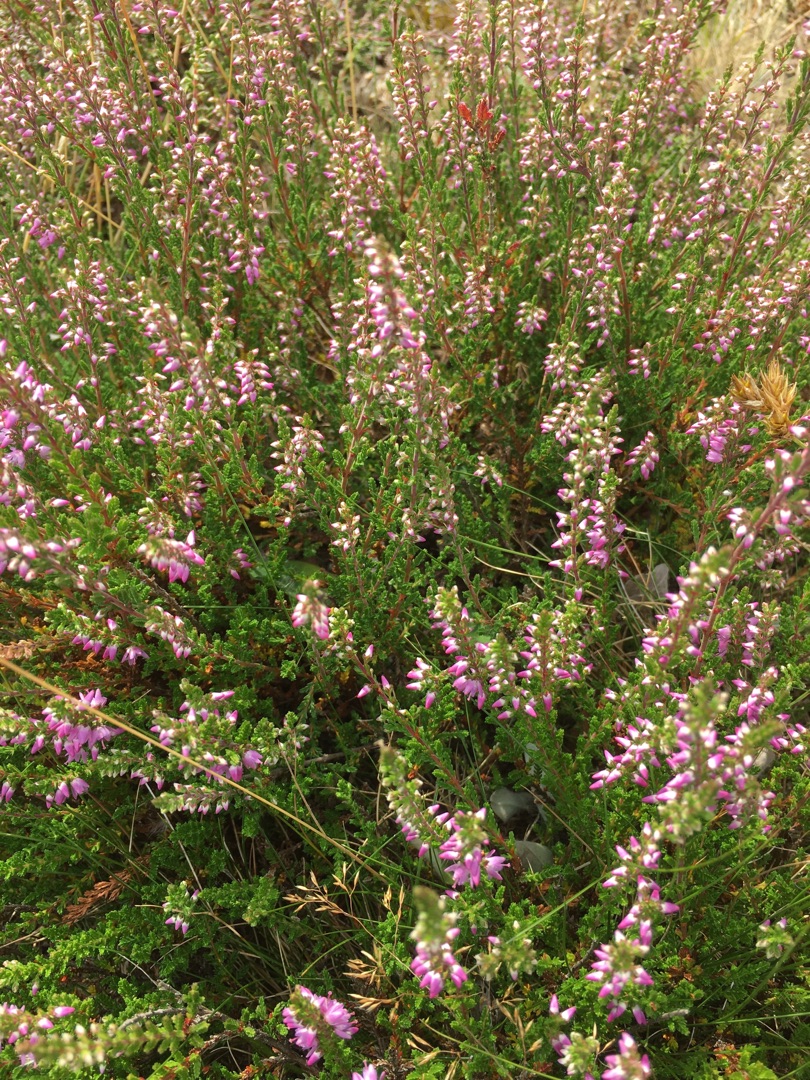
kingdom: Plantae
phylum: Tracheophyta
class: Magnoliopsida
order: Ericales
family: Ericaceae
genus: Calluna
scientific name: Calluna vulgaris
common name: Hedelyng
